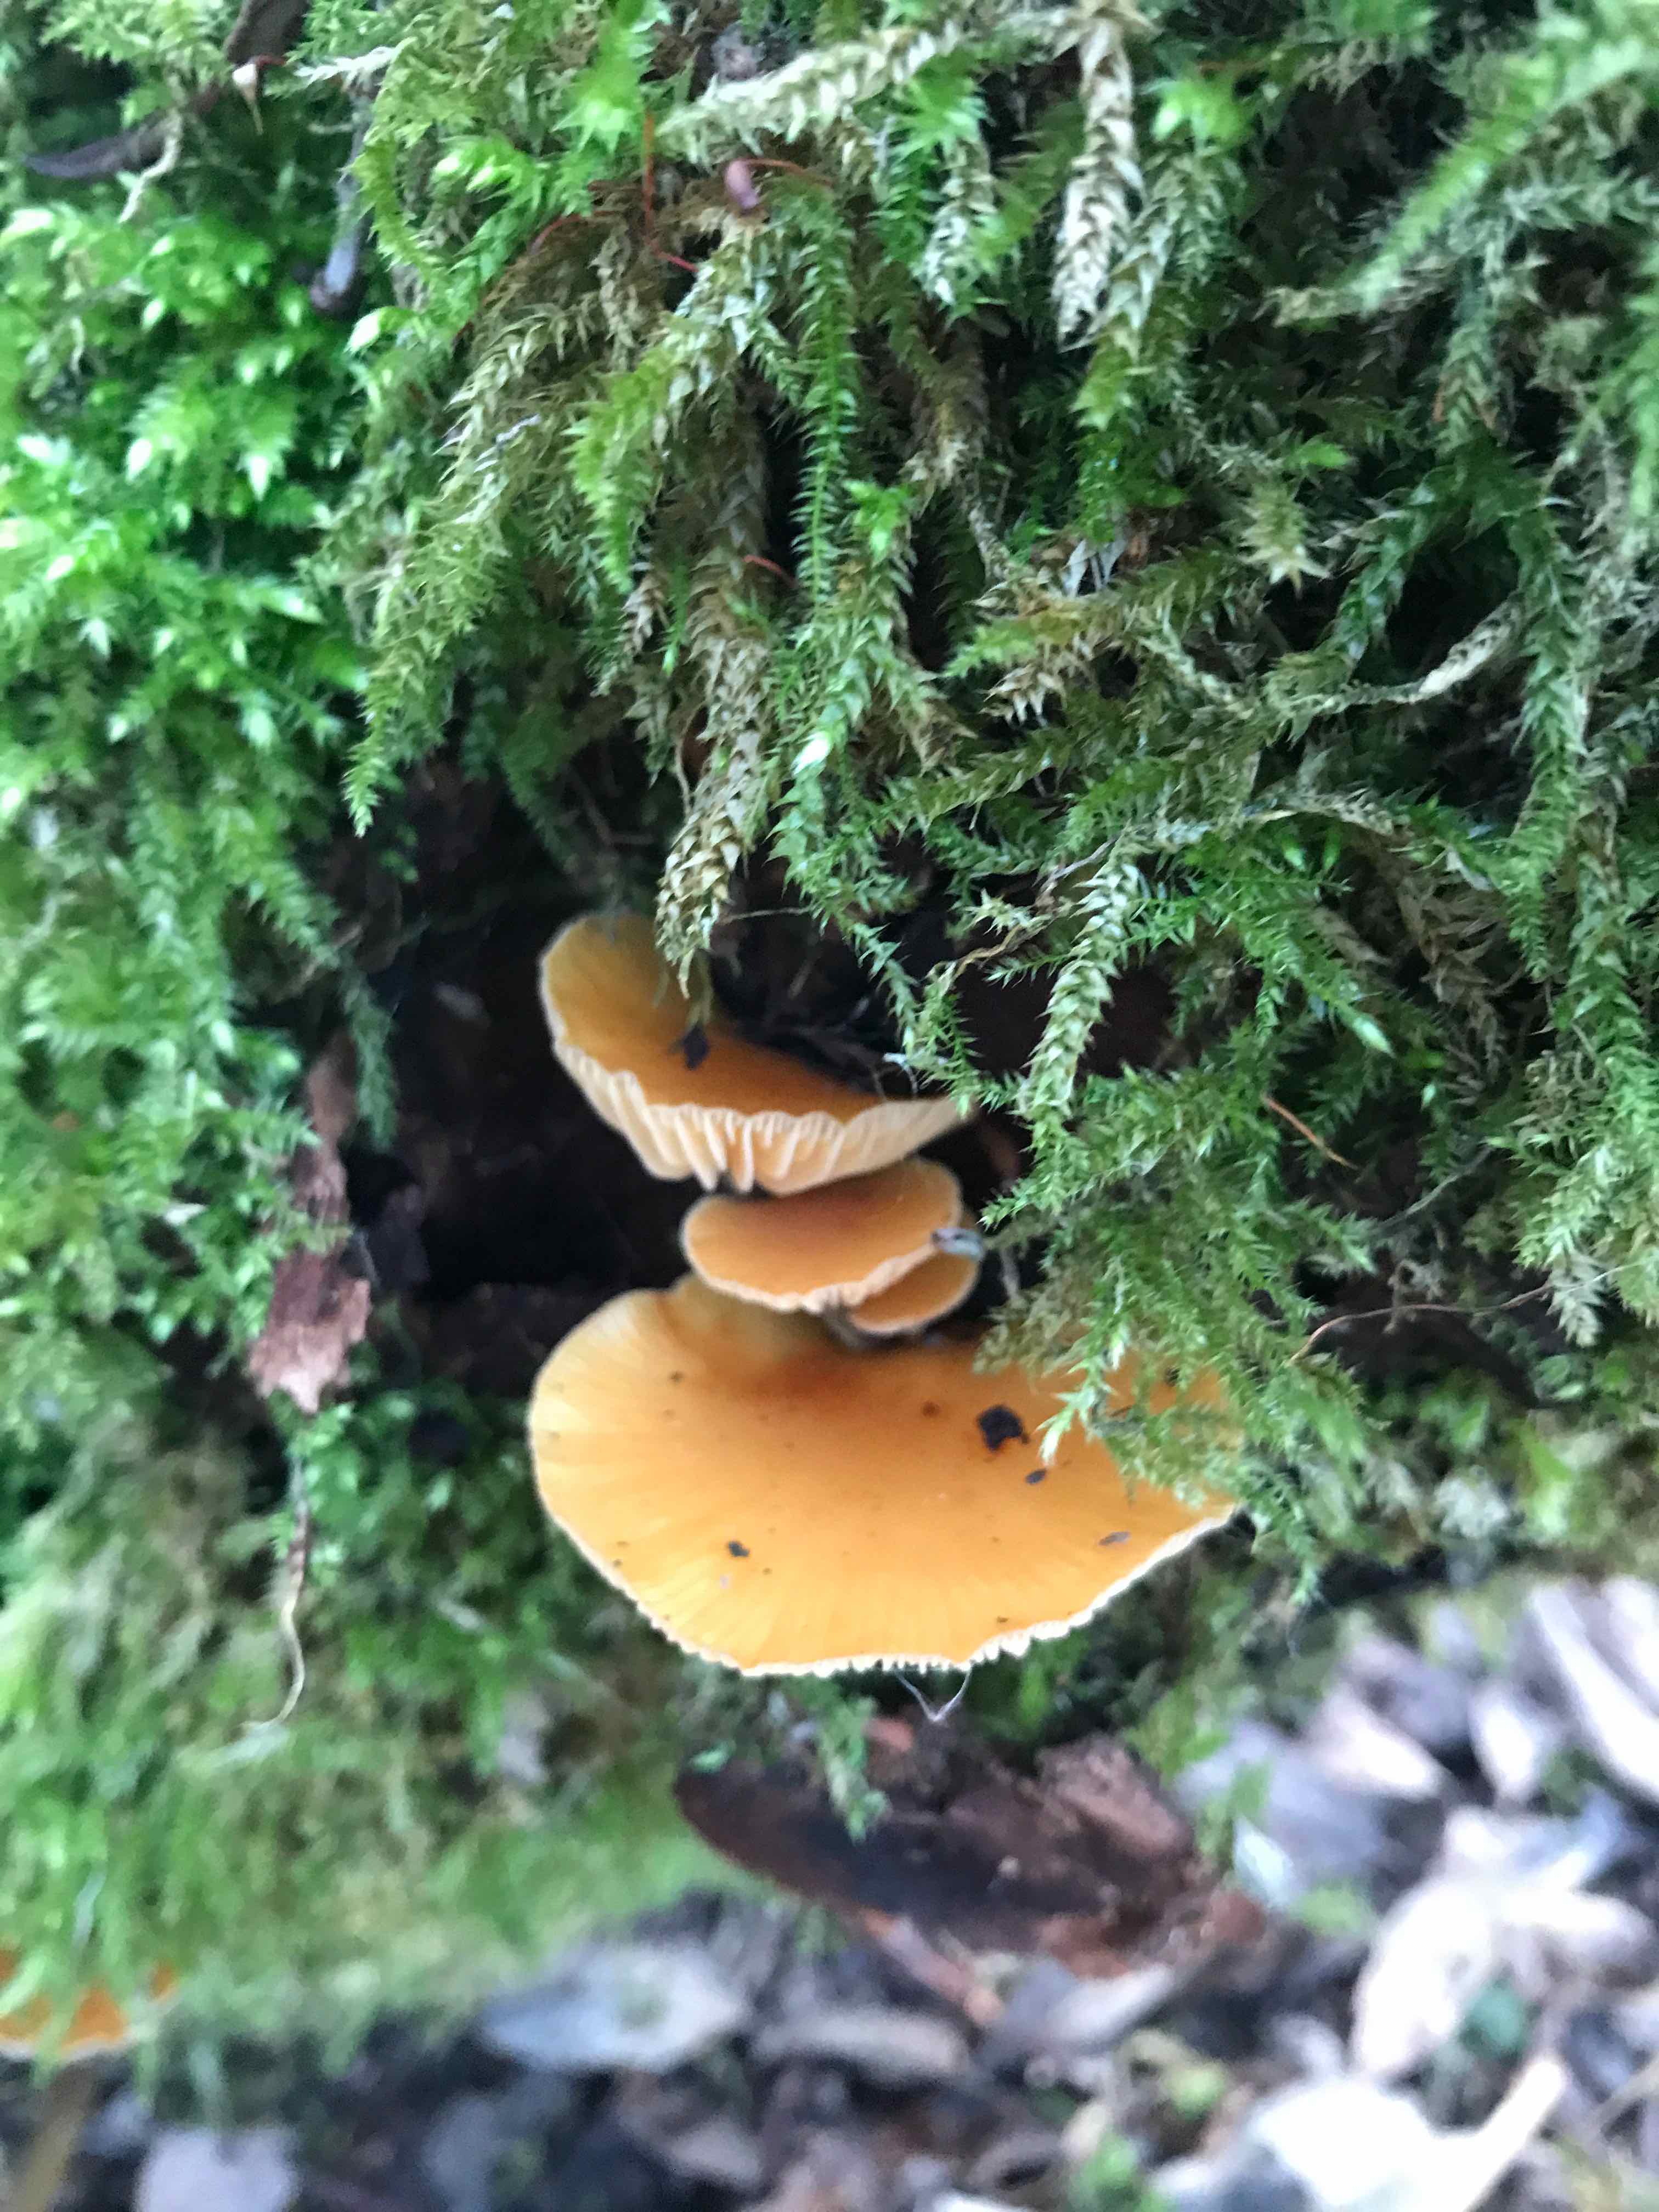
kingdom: Fungi
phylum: Basidiomycota
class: Agaricomycetes
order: Agaricales
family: Physalacriaceae
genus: Flammulina
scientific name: Flammulina elastica
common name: pile-fløjlsfod
